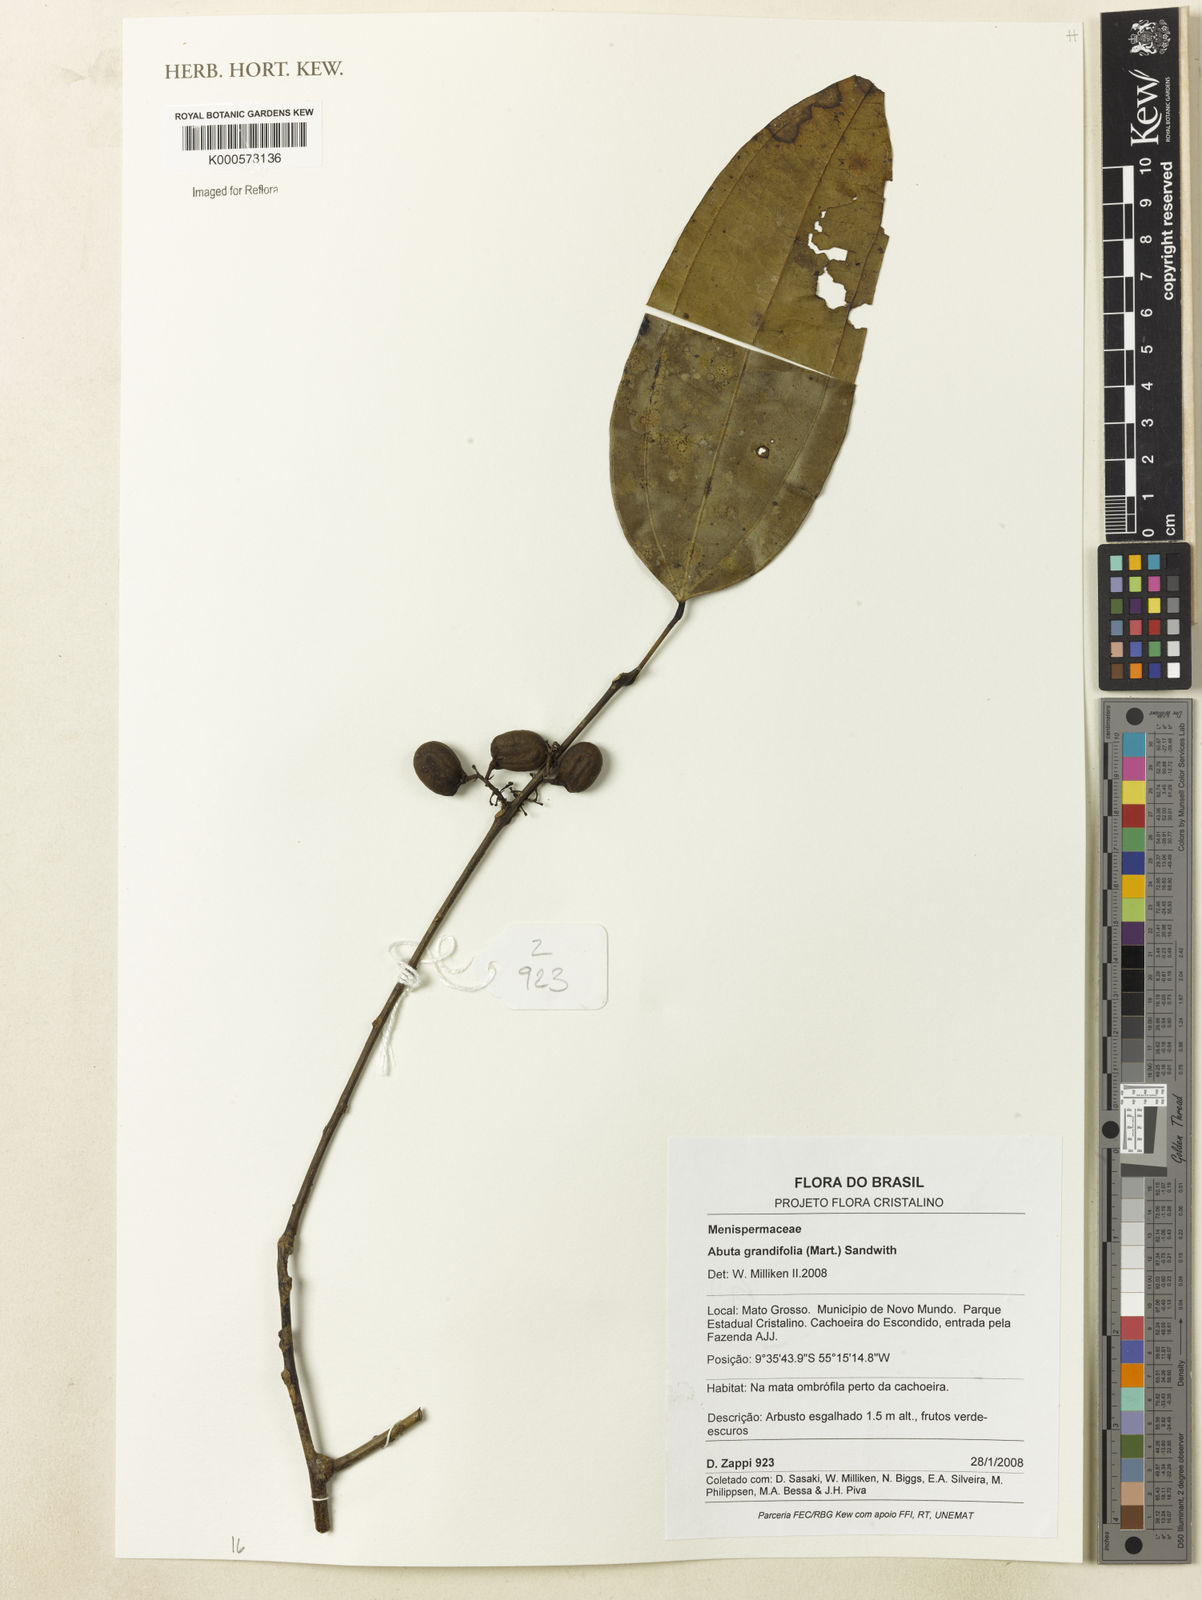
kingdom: Plantae
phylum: Tracheophyta
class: Magnoliopsida
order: Ranunculales
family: Menispermaceae
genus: Abuta
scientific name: Abuta grandifolia
